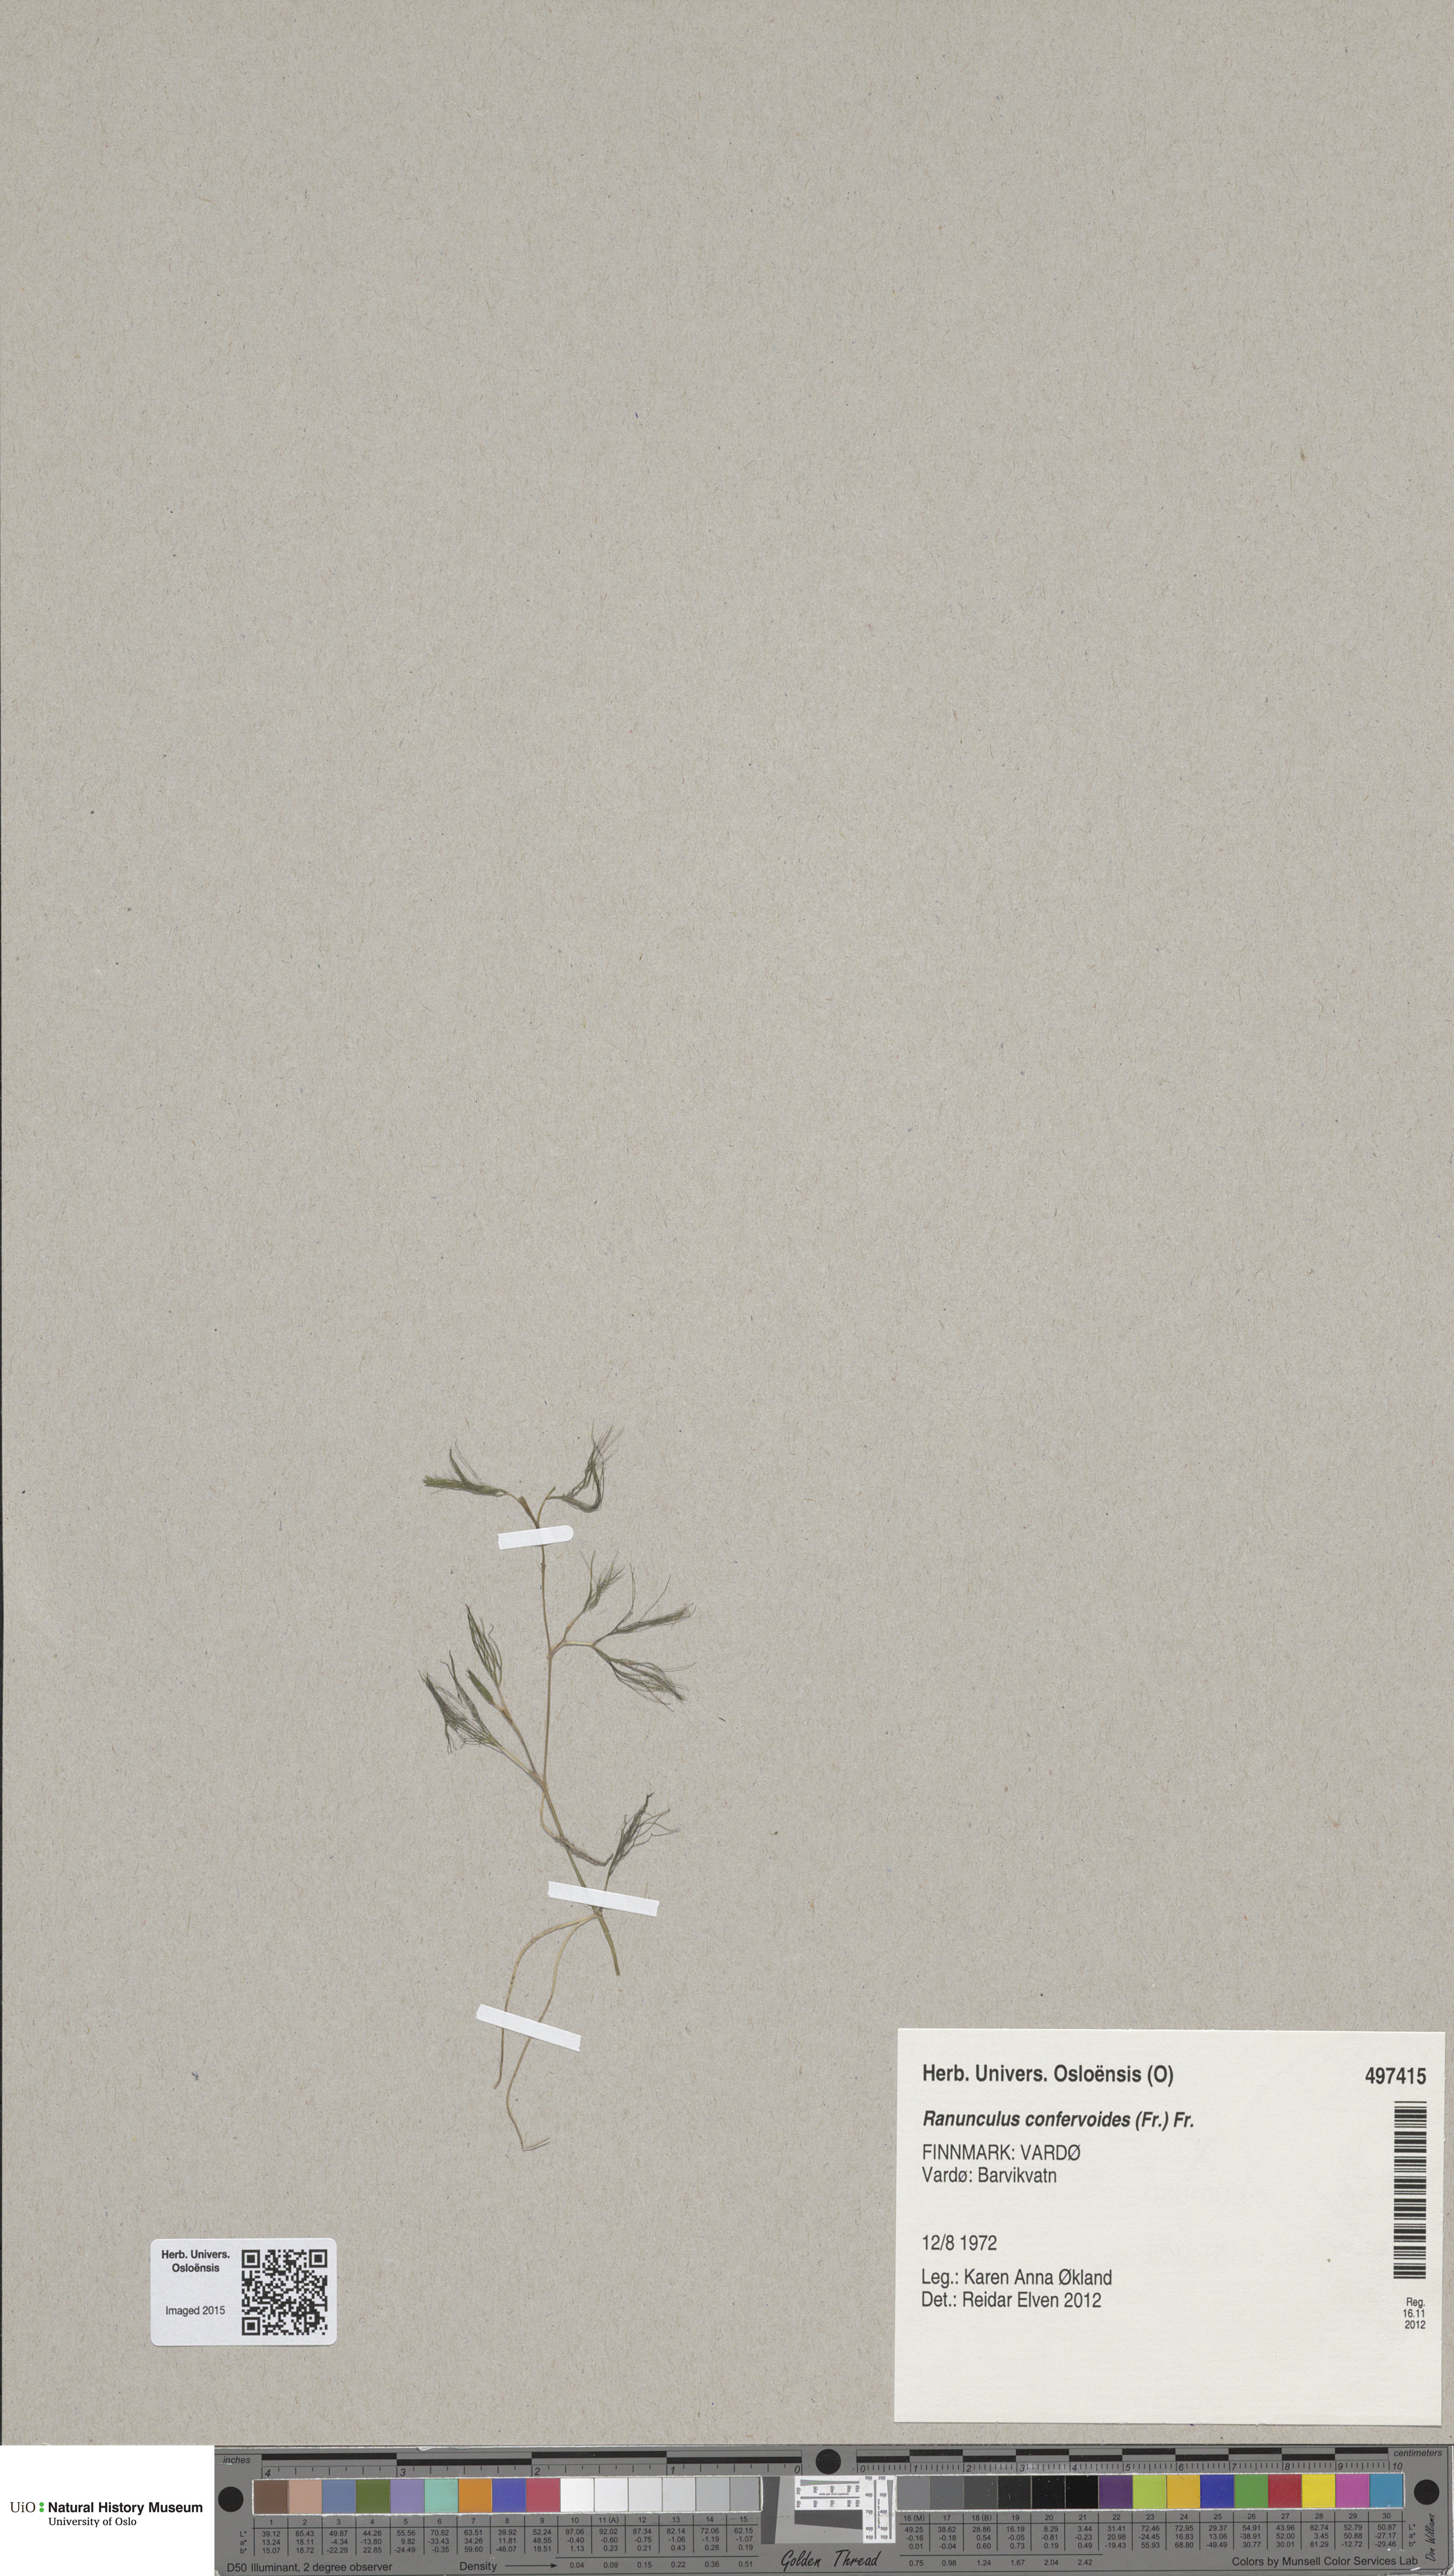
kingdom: Plantae
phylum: Tracheophyta
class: Magnoliopsida
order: Ranunculales
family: Ranunculaceae
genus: Ranunculus
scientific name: Ranunculus confervoides
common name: Delicate buttercup
